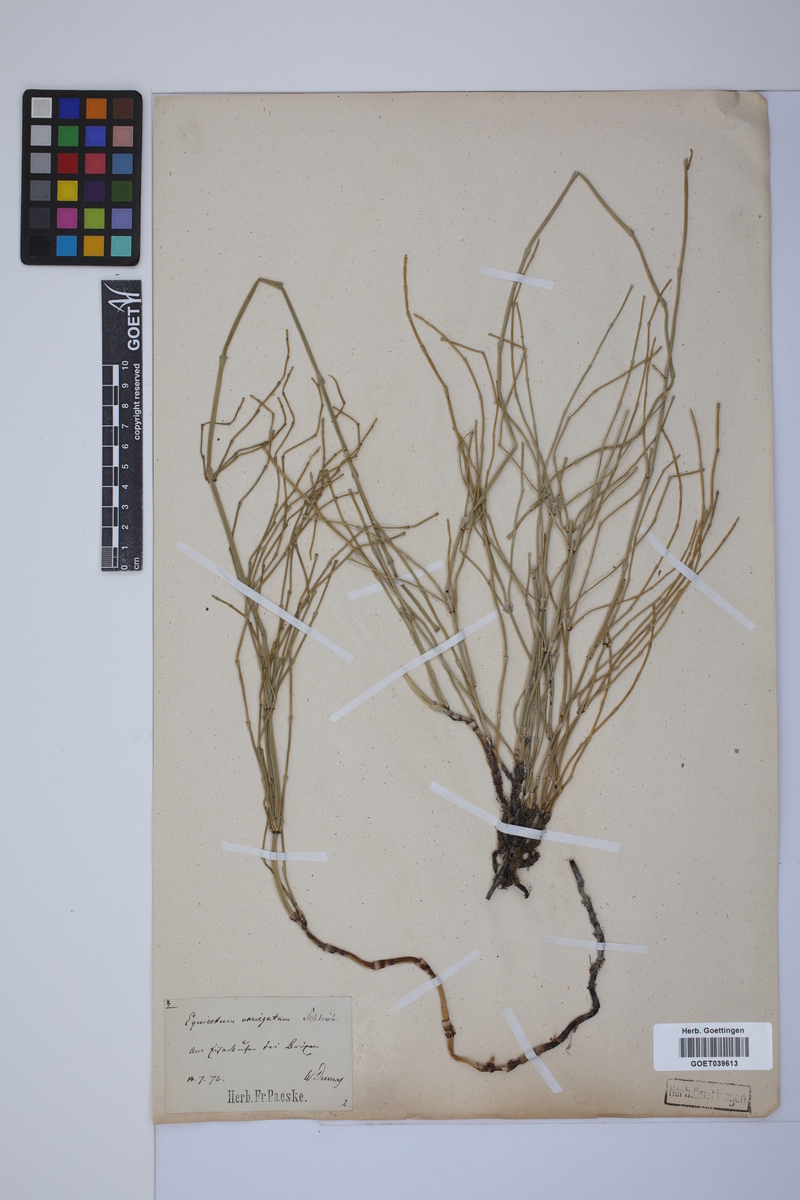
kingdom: Plantae
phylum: Tracheophyta
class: Polypodiopsida
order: Equisetales
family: Equisetaceae
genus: Equisetum
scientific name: Equisetum variegatum
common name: Variegated horsetail
